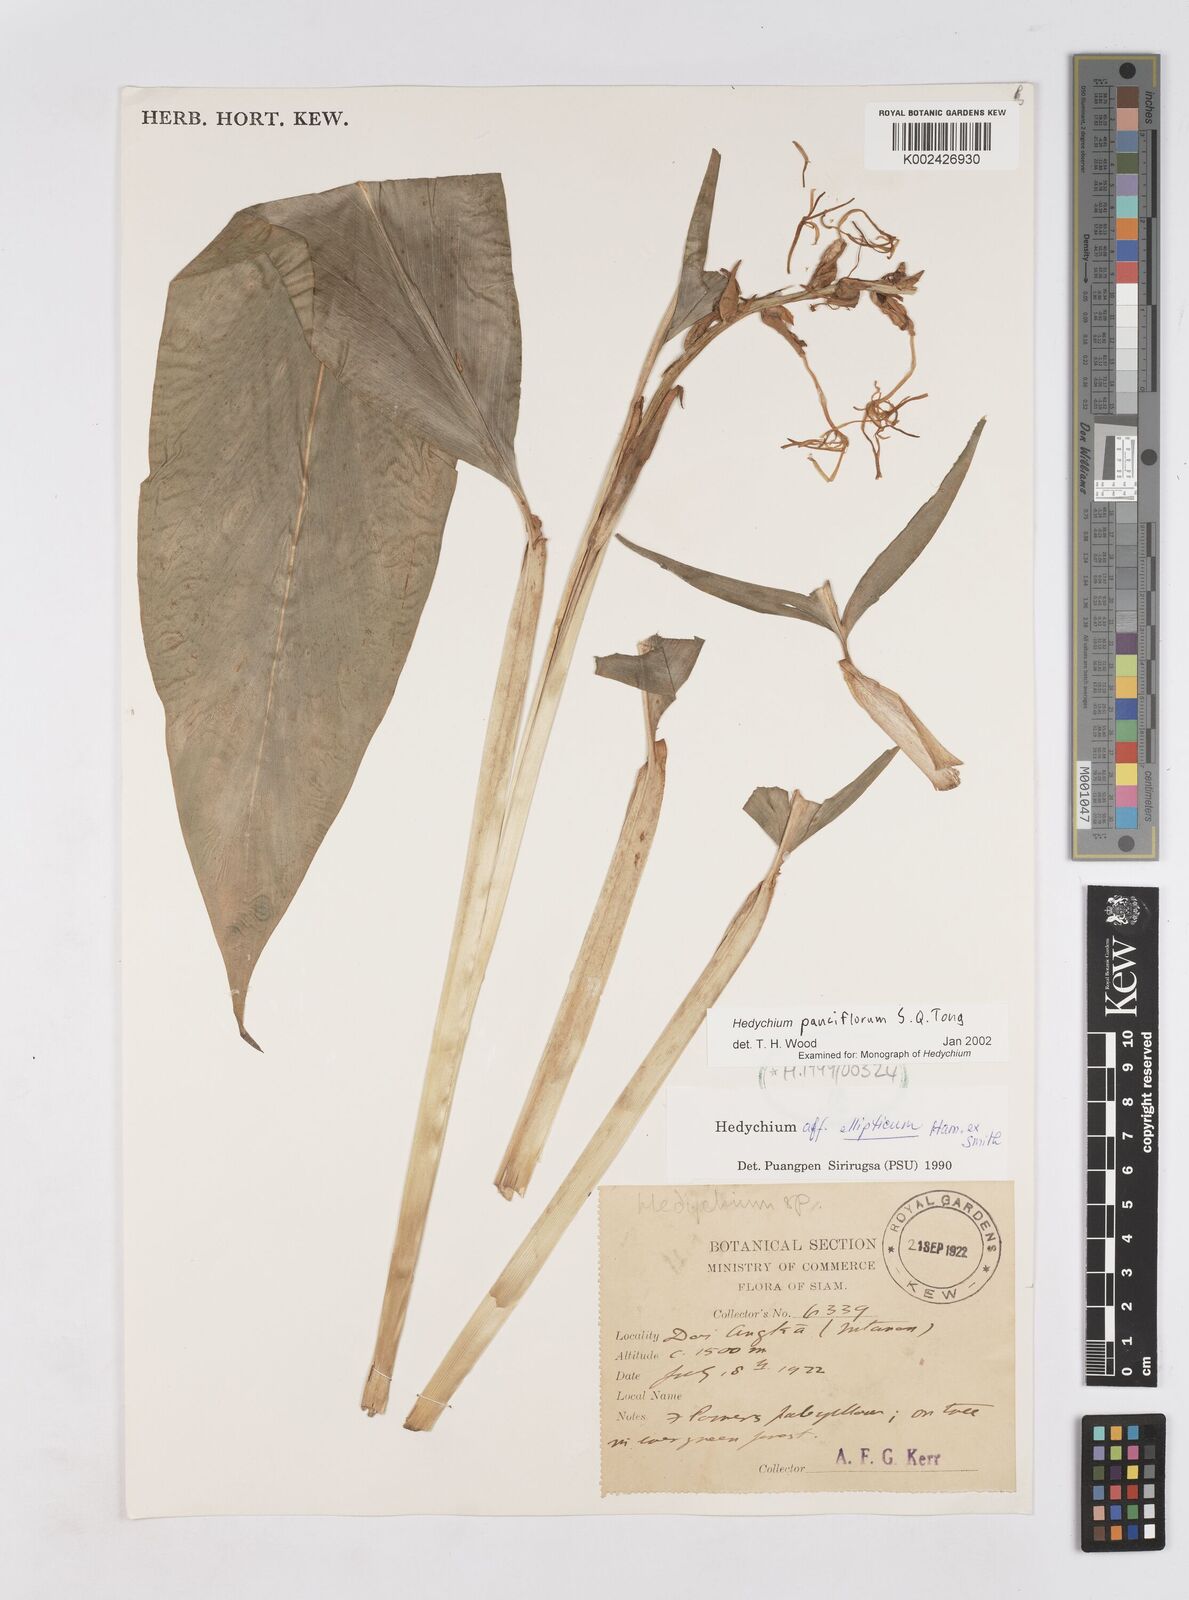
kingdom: Plantae
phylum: Tracheophyta
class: Liliopsida
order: Zingiberales
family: Zingiberaceae
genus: Hedychium
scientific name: Hedychium ellipticum
